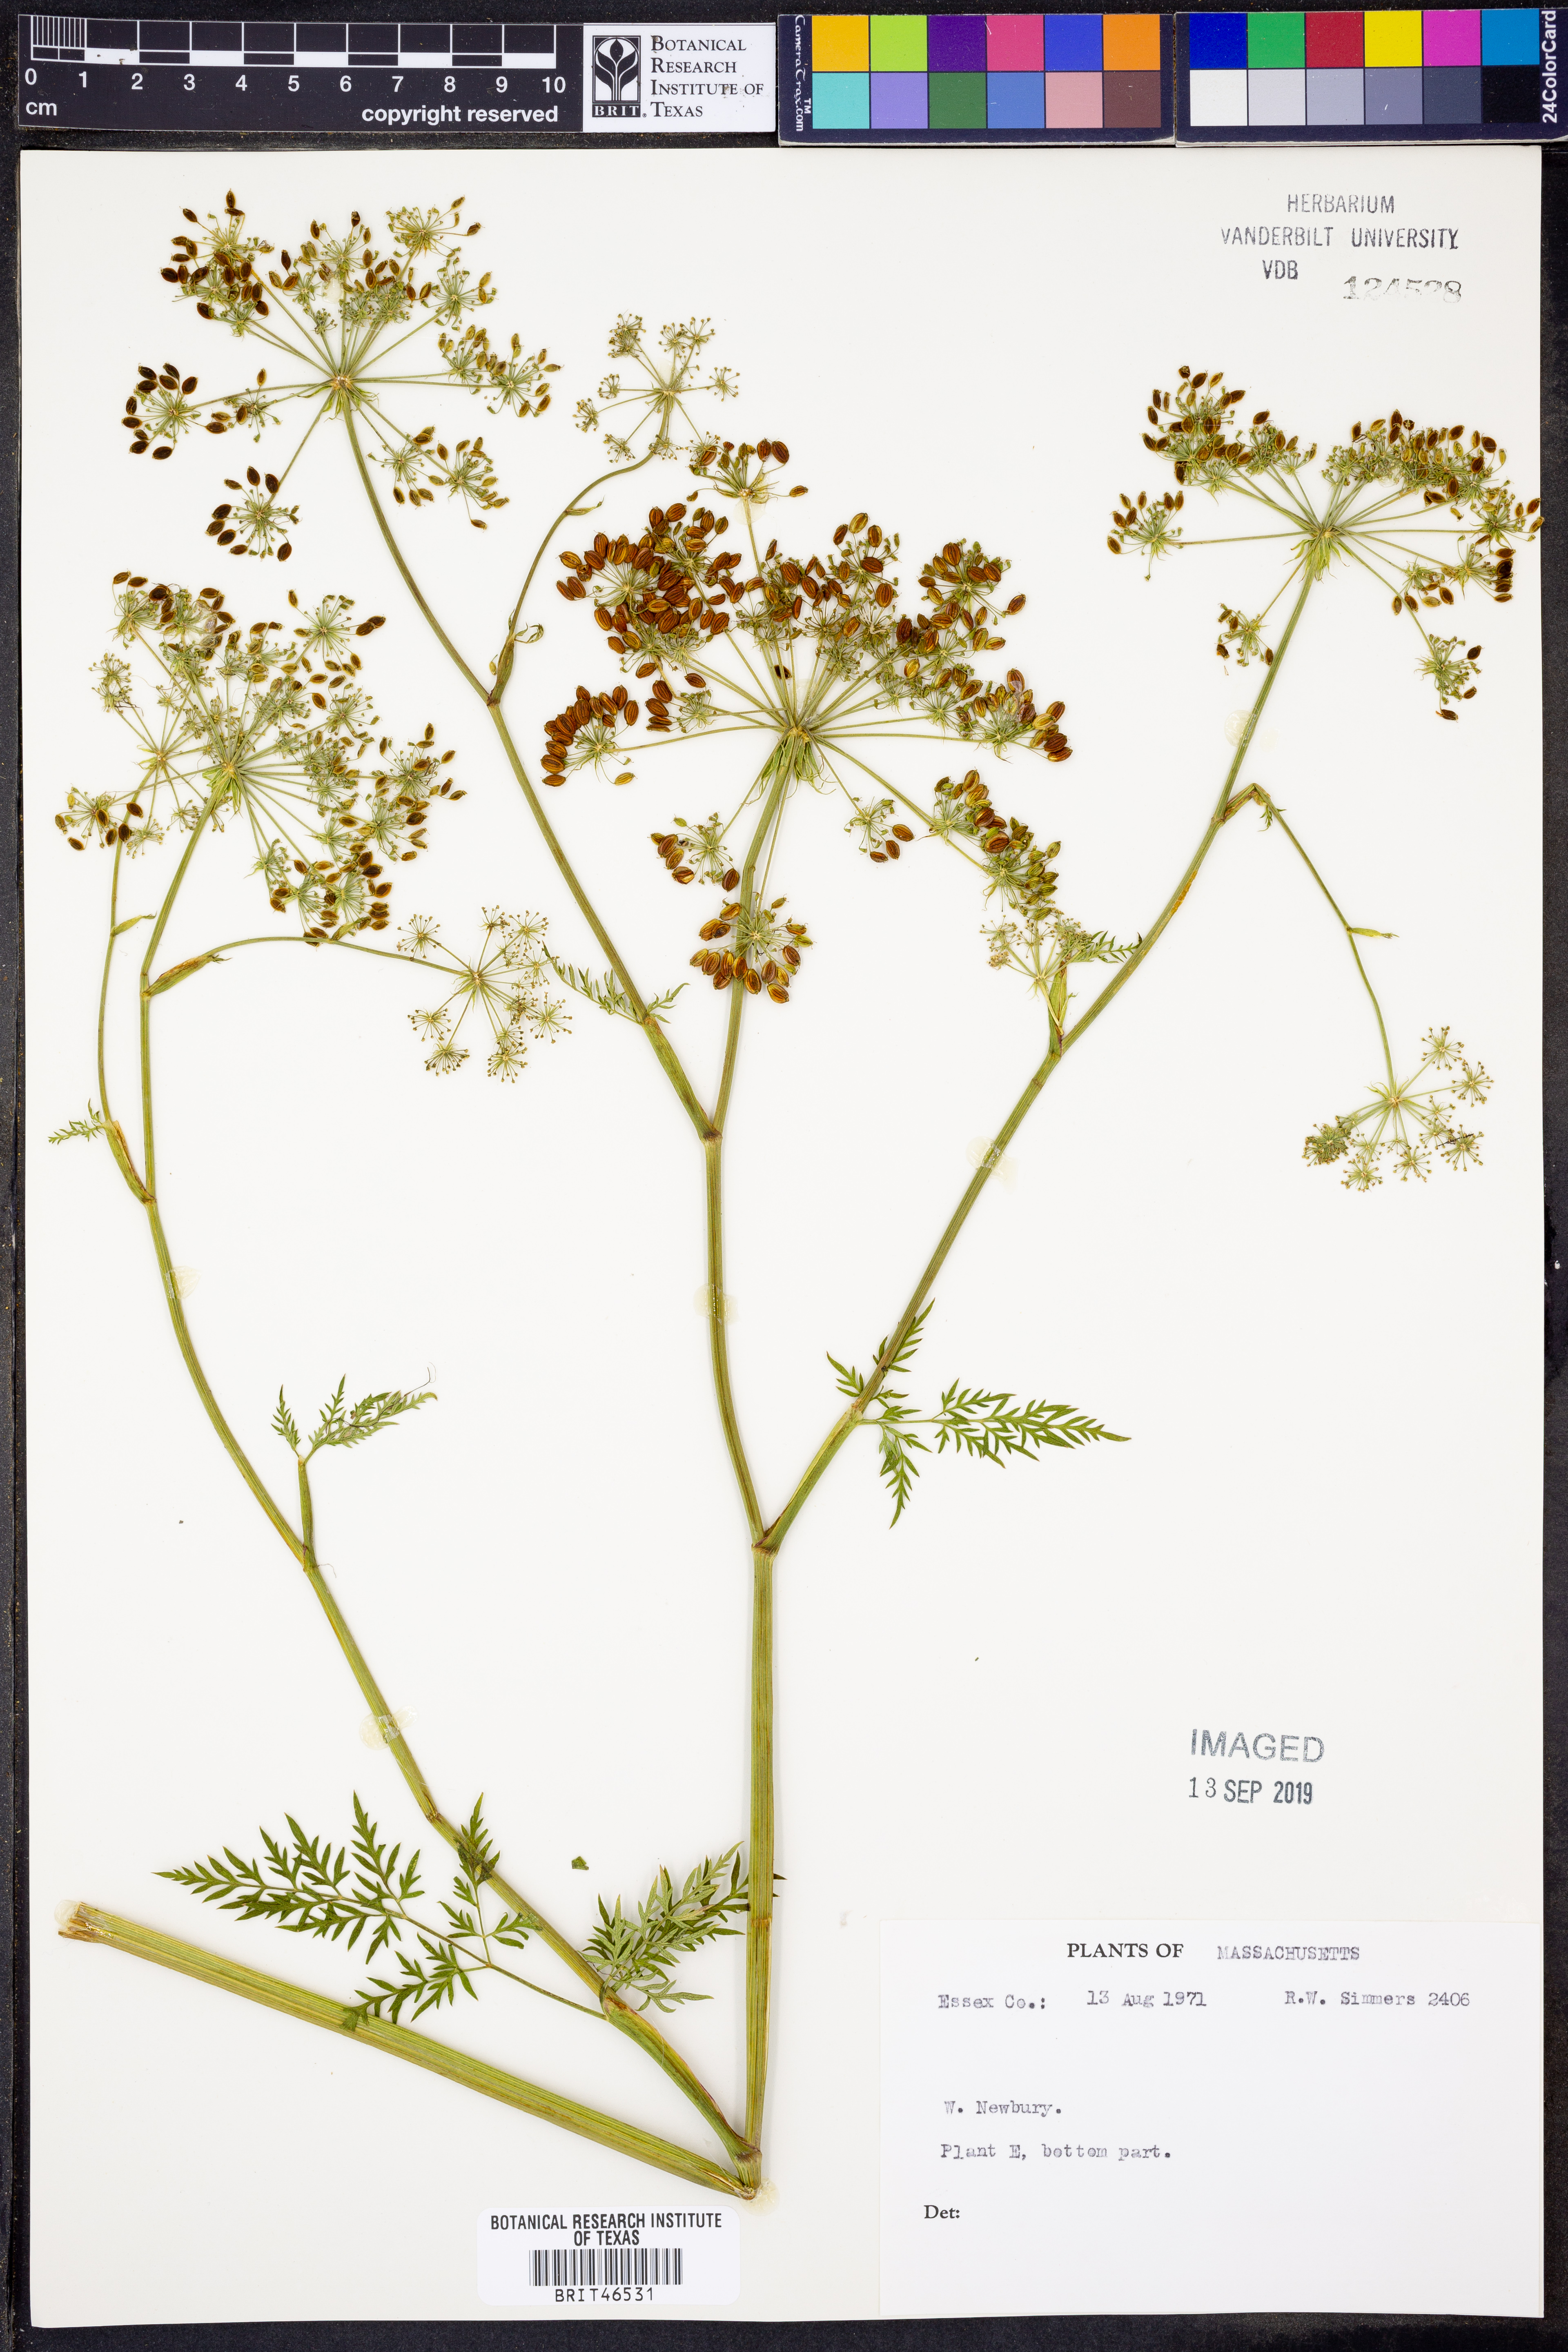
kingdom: Plantae
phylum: Tracheophyta
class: Magnoliopsida
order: Apiales
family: Apiaceae
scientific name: Apiaceae
